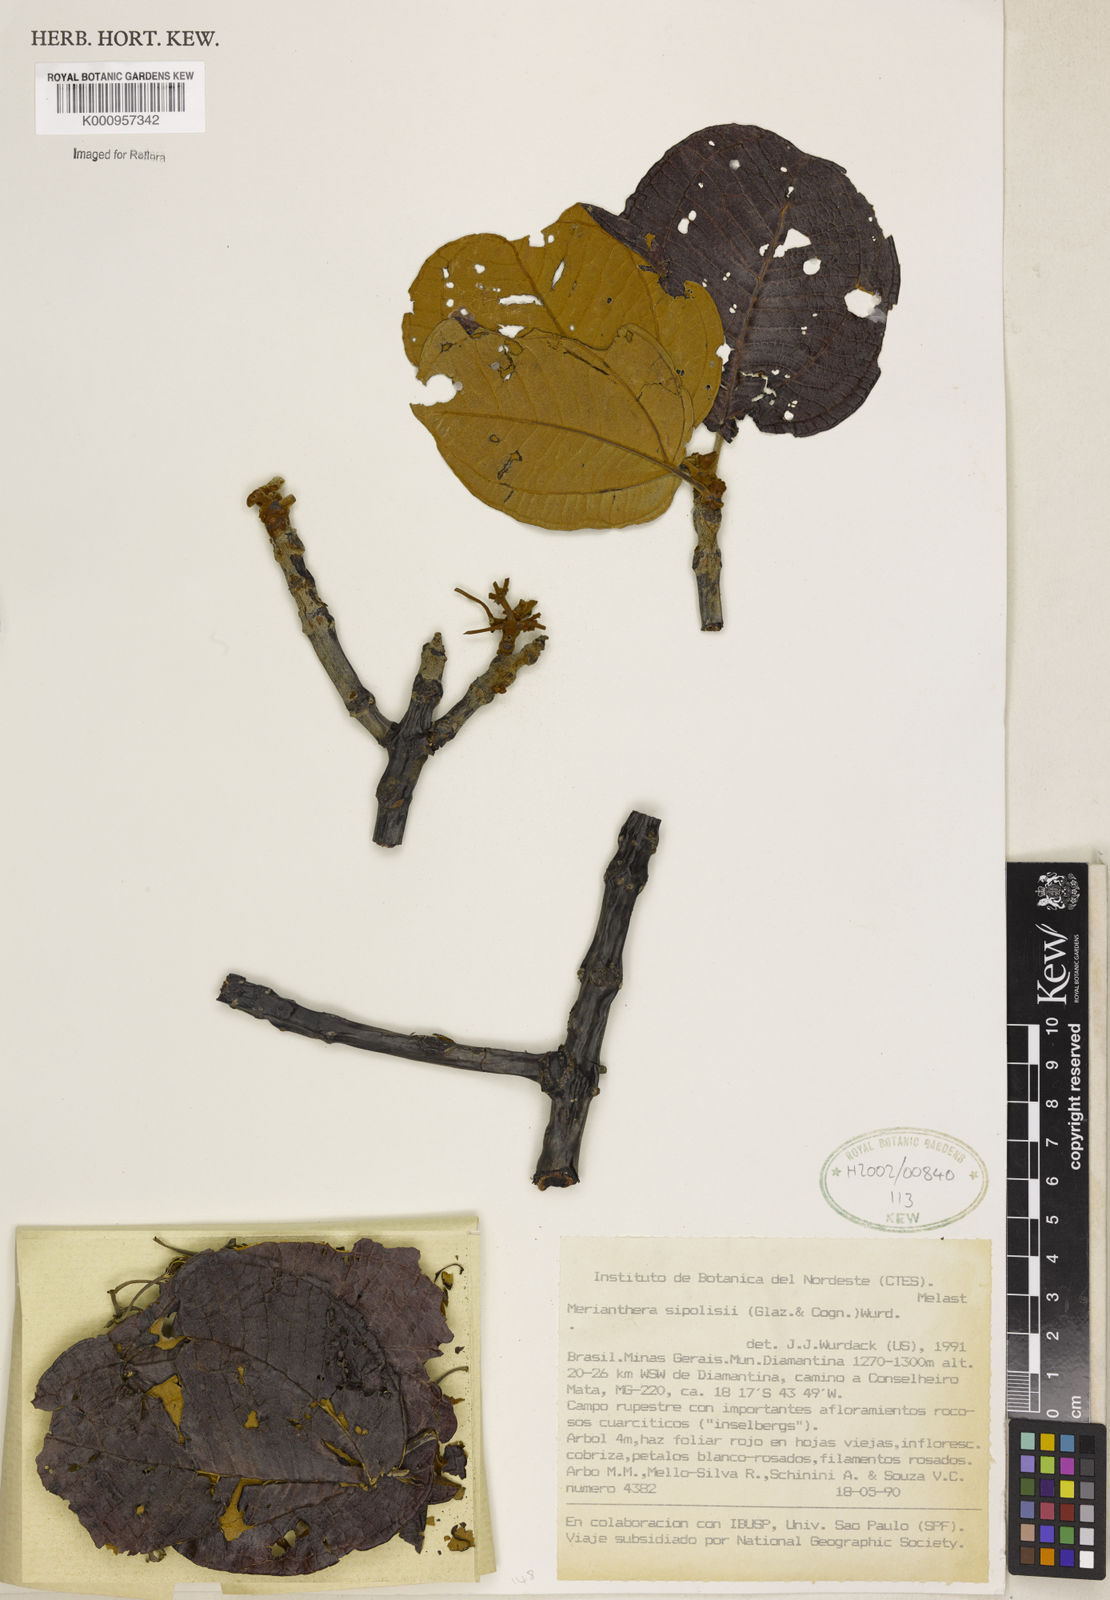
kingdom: Plantae
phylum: Tracheophyta
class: Magnoliopsida
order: Myrtales
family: Melastomataceae
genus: Merianthera
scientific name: Merianthera sipolisii
